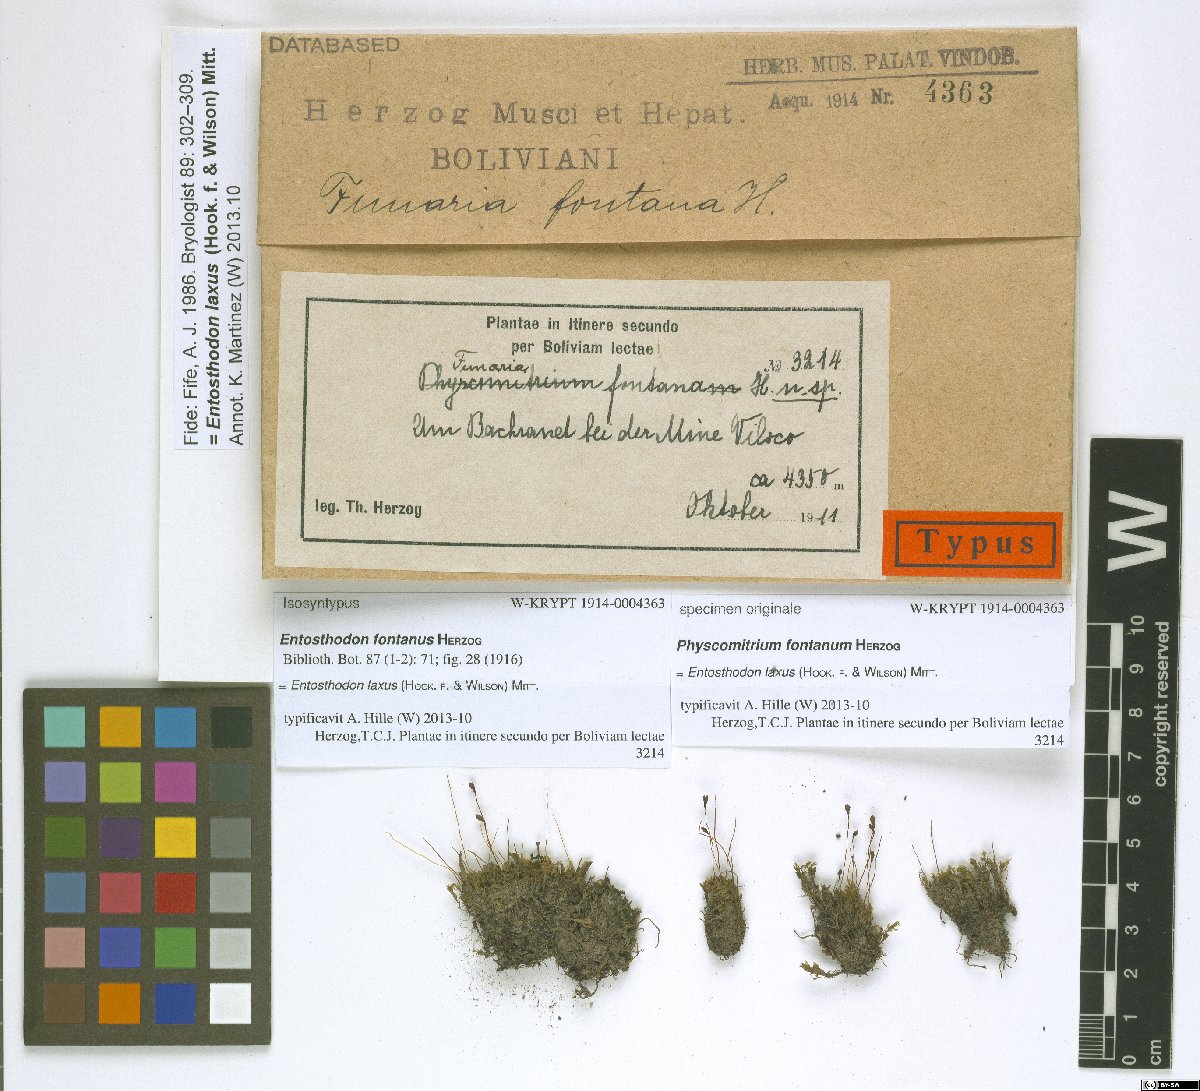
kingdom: Plantae
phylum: Bryophyta
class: Bryopsida
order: Funariales
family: Funariaceae
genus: Entosthodon
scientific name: Entosthodon laxus
